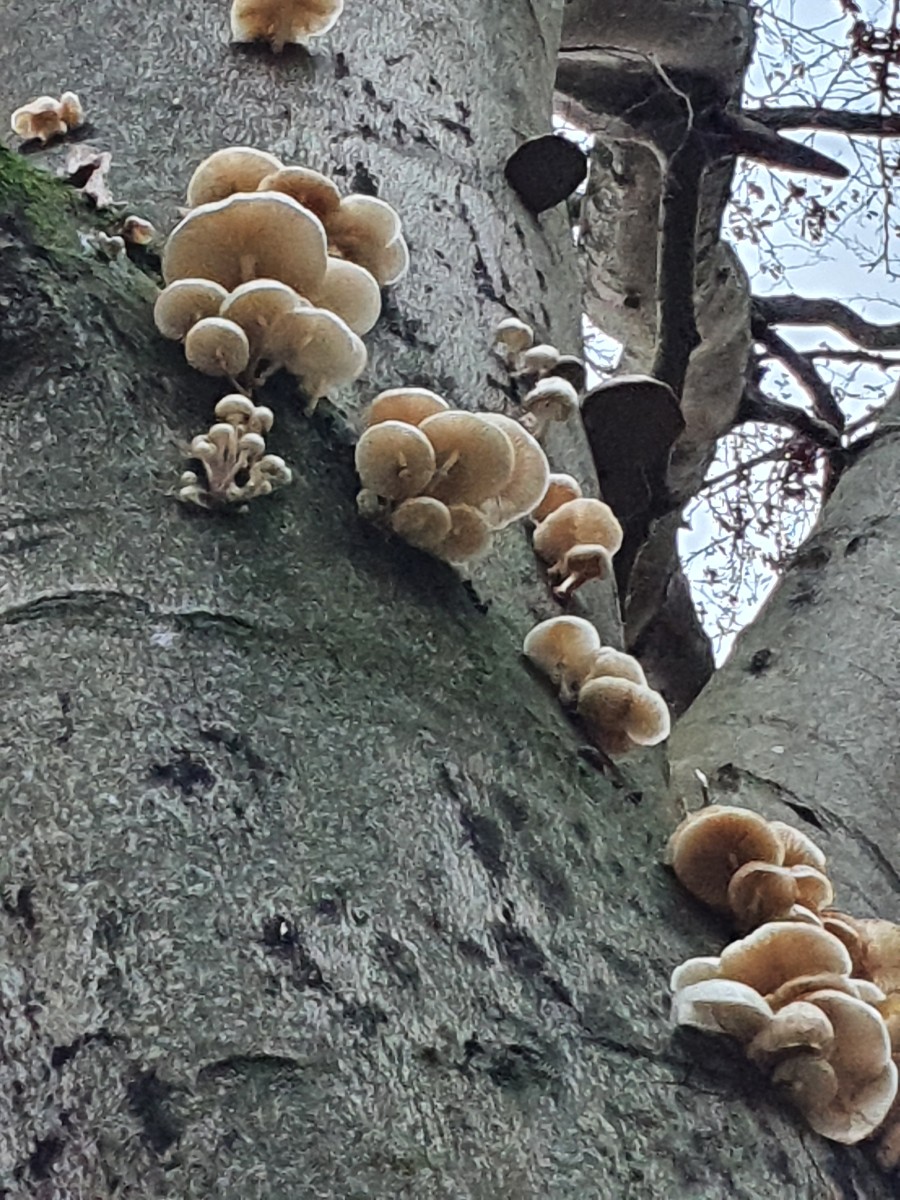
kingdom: Fungi
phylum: Basidiomycota
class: Agaricomycetes
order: Agaricales
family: Physalacriaceae
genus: Mucidula
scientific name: Mucidula mucida
